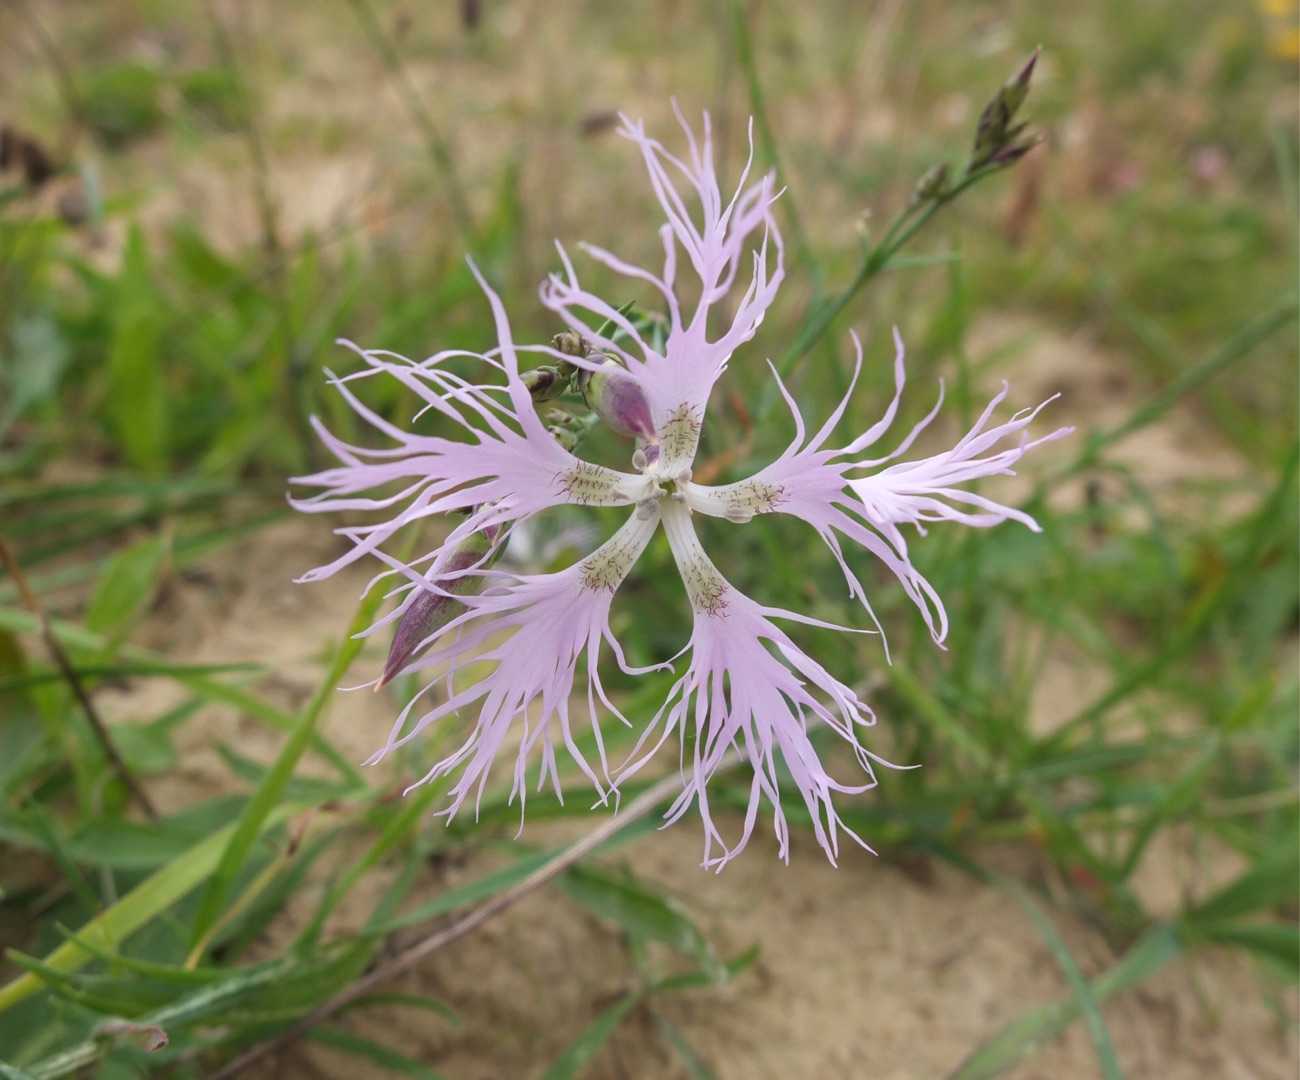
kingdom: Plantae
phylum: Tracheophyta
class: Magnoliopsida
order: Caryophyllales
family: Caryophyllaceae
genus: Dianthus
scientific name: Dianthus superbus
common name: Strand-nellike
